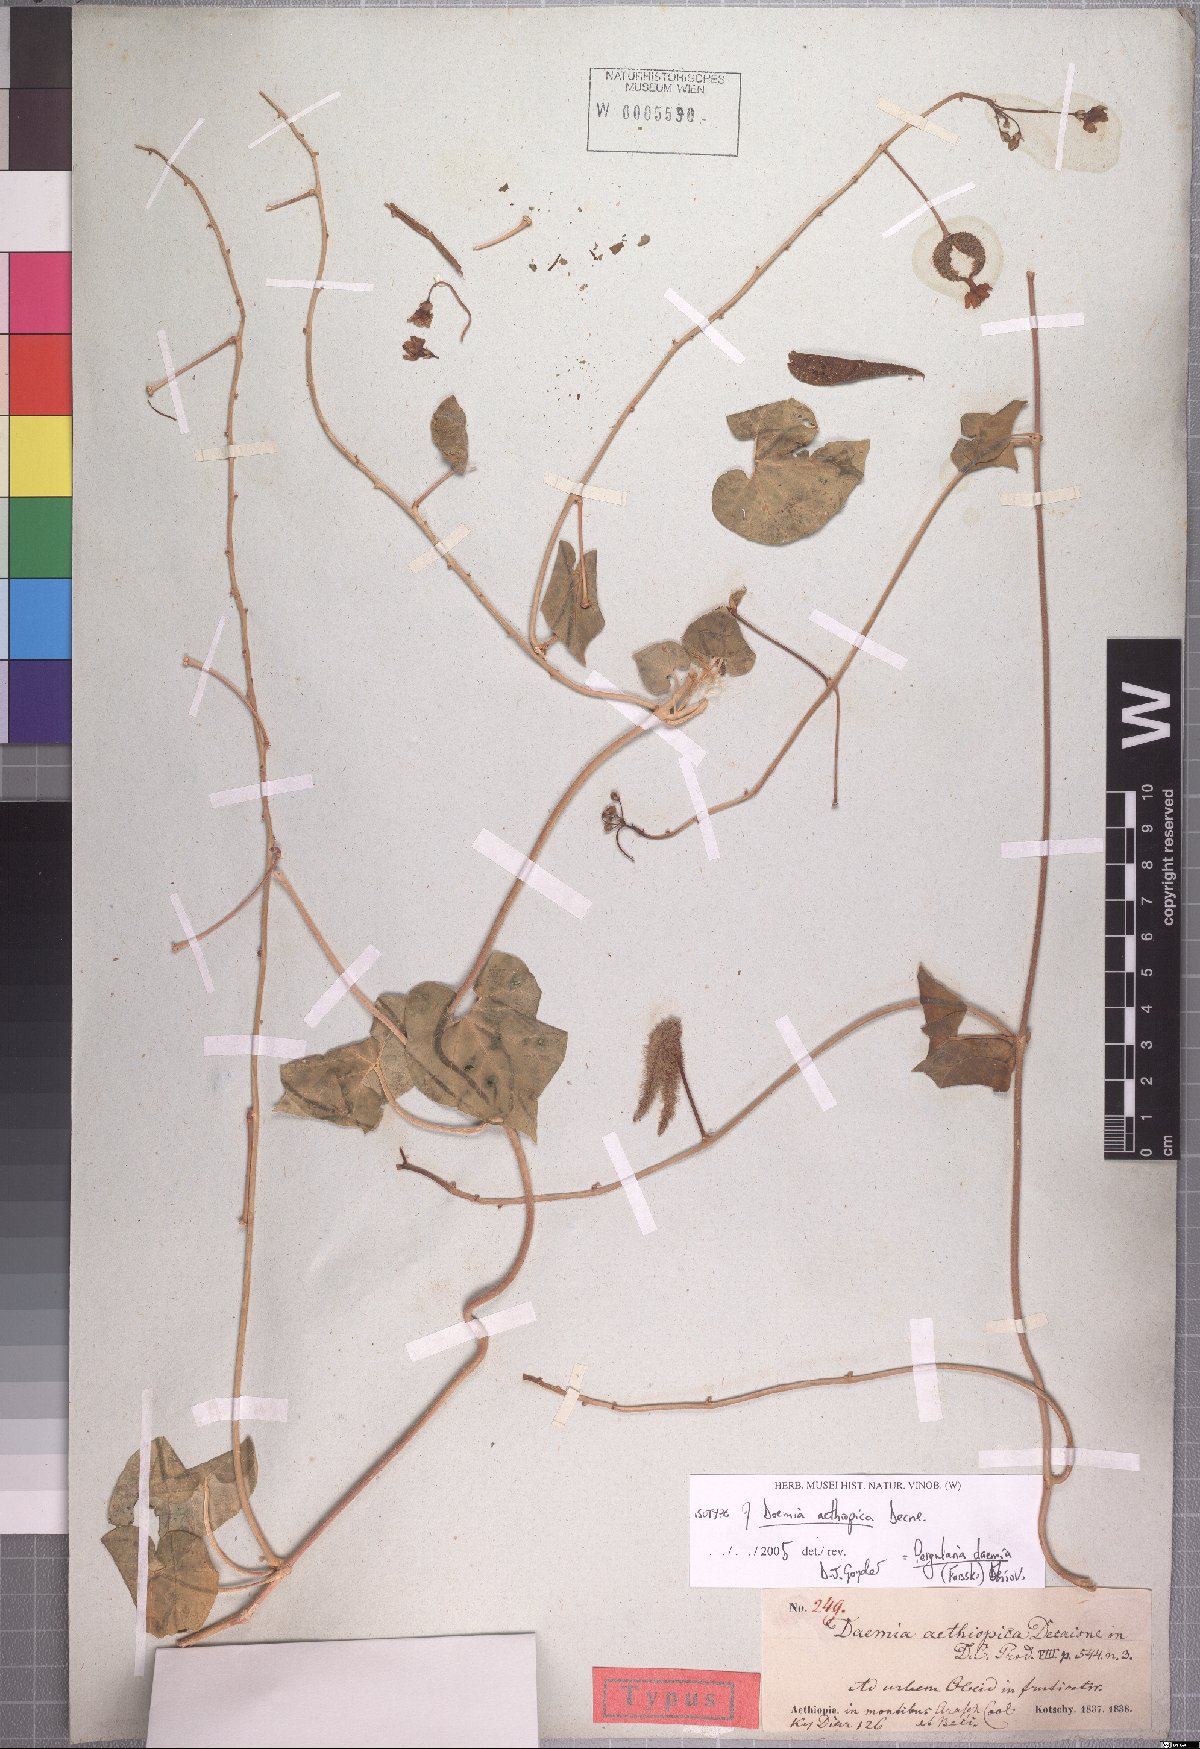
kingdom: Plantae
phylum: Tracheophyta
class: Magnoliopsida
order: Gentianales
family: Apocynaceae
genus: Pergularia
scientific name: Pergularia daemia
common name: Trellis-vine
